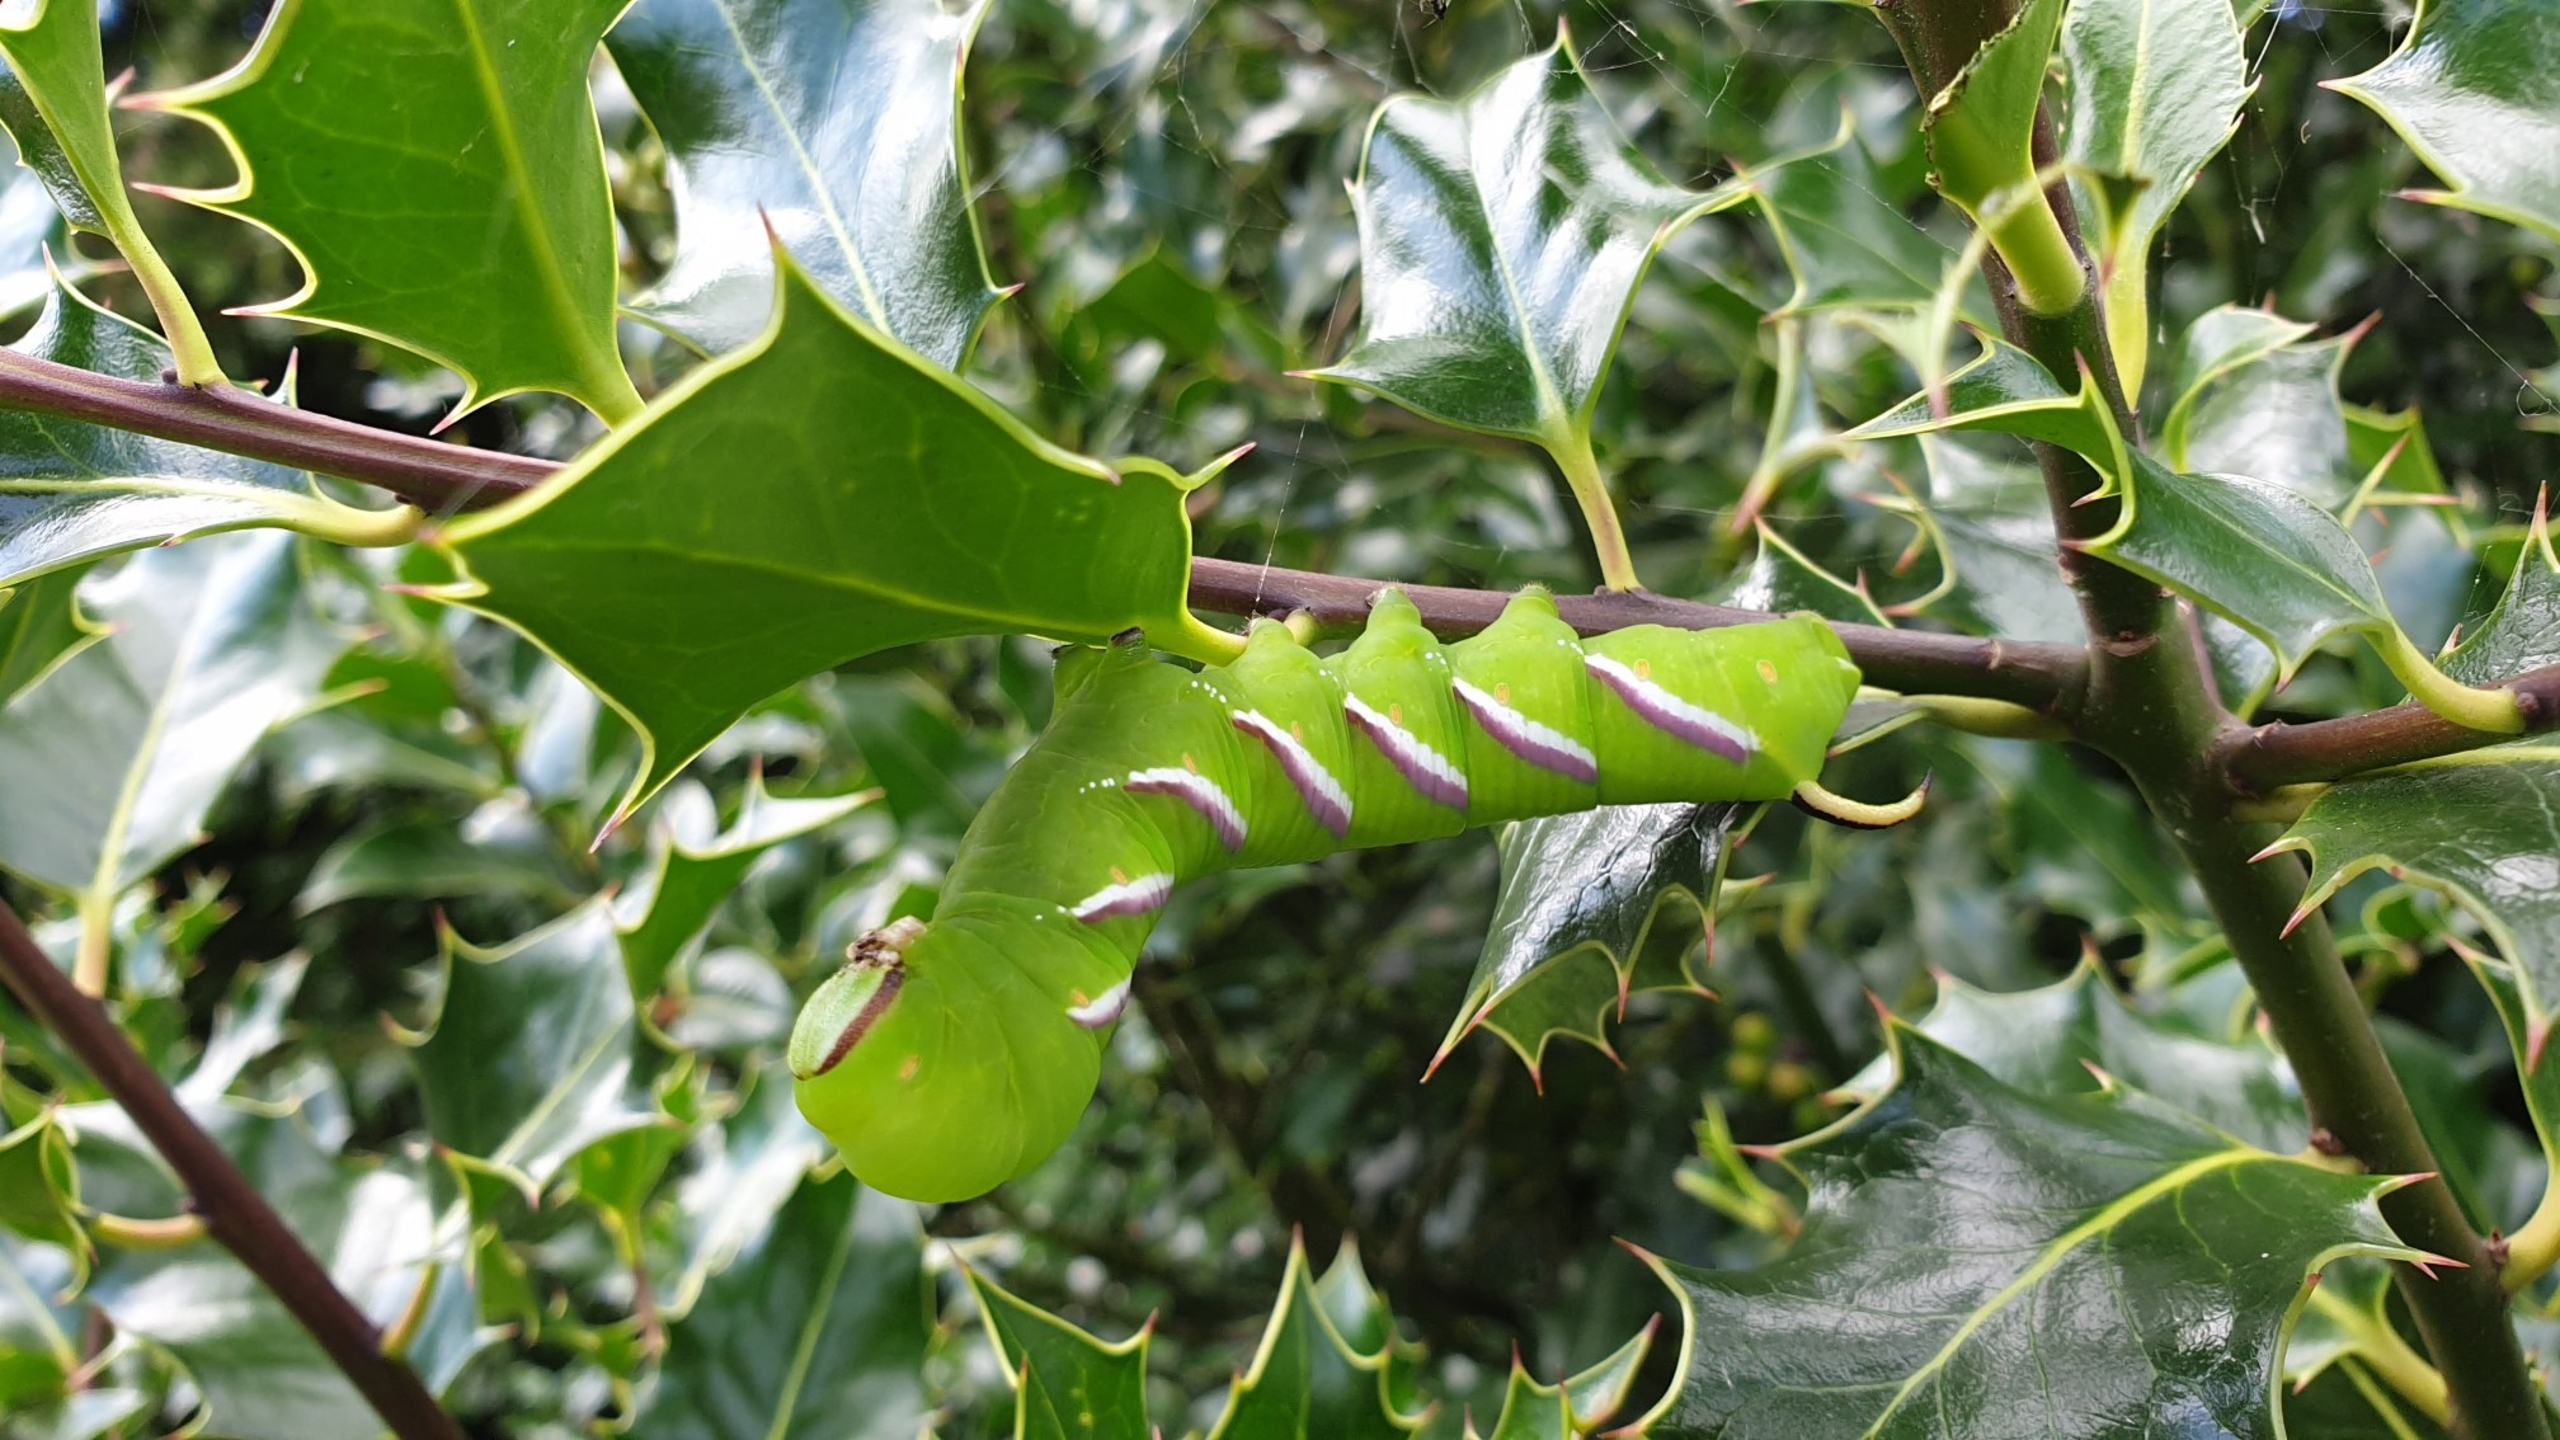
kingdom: Animalia
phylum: Arthropoda
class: Insecta
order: Lepidoptera
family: Sphingidae
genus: Sphinx
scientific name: Sphinx ligustri
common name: Ligustersværmer
